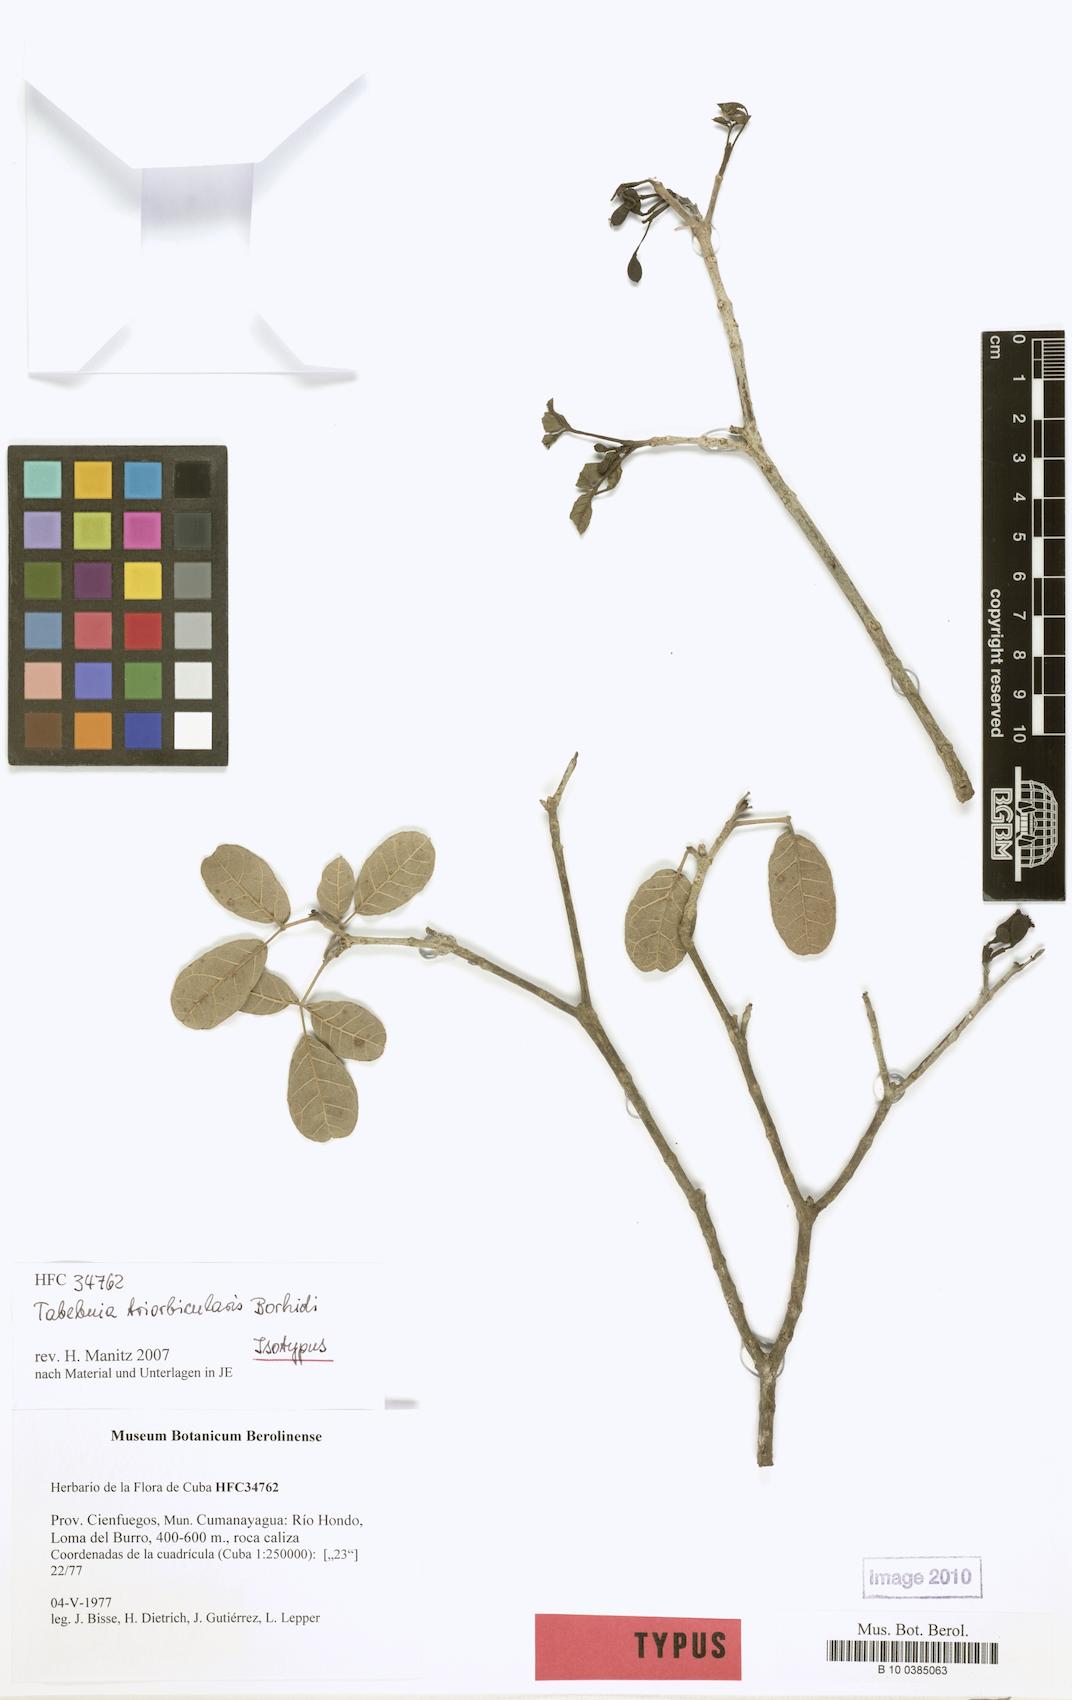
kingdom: Plantae
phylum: Tracheophyta
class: Magnoliopsida
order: Lamiales
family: Bignoniaceae
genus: Tabebuia
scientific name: Tabebuia calcicola
